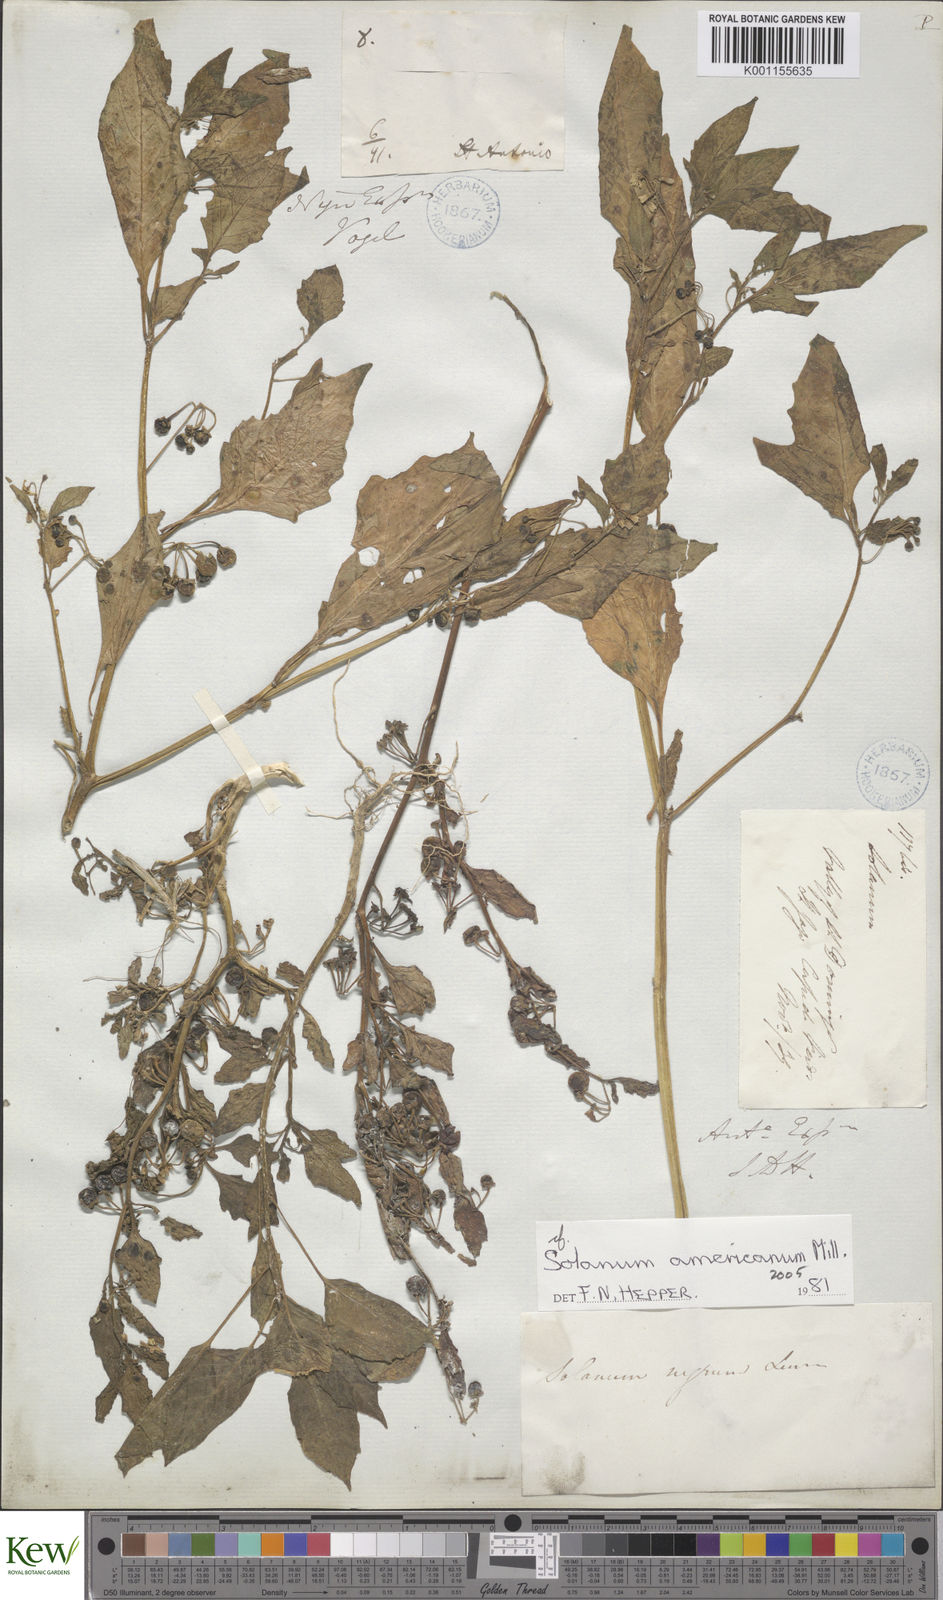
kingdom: Plantae
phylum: Tracheophyta
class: Magnoliopsida
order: Solanales
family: Solanaceae
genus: Solanum
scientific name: Solanum tarderemotum
